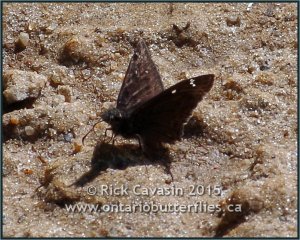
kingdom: Animalia
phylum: Arthropoda
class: Insecta
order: Lepidoptera
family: Hesperiidae
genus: Gesta
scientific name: Gesta
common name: Horace's Duskywing
